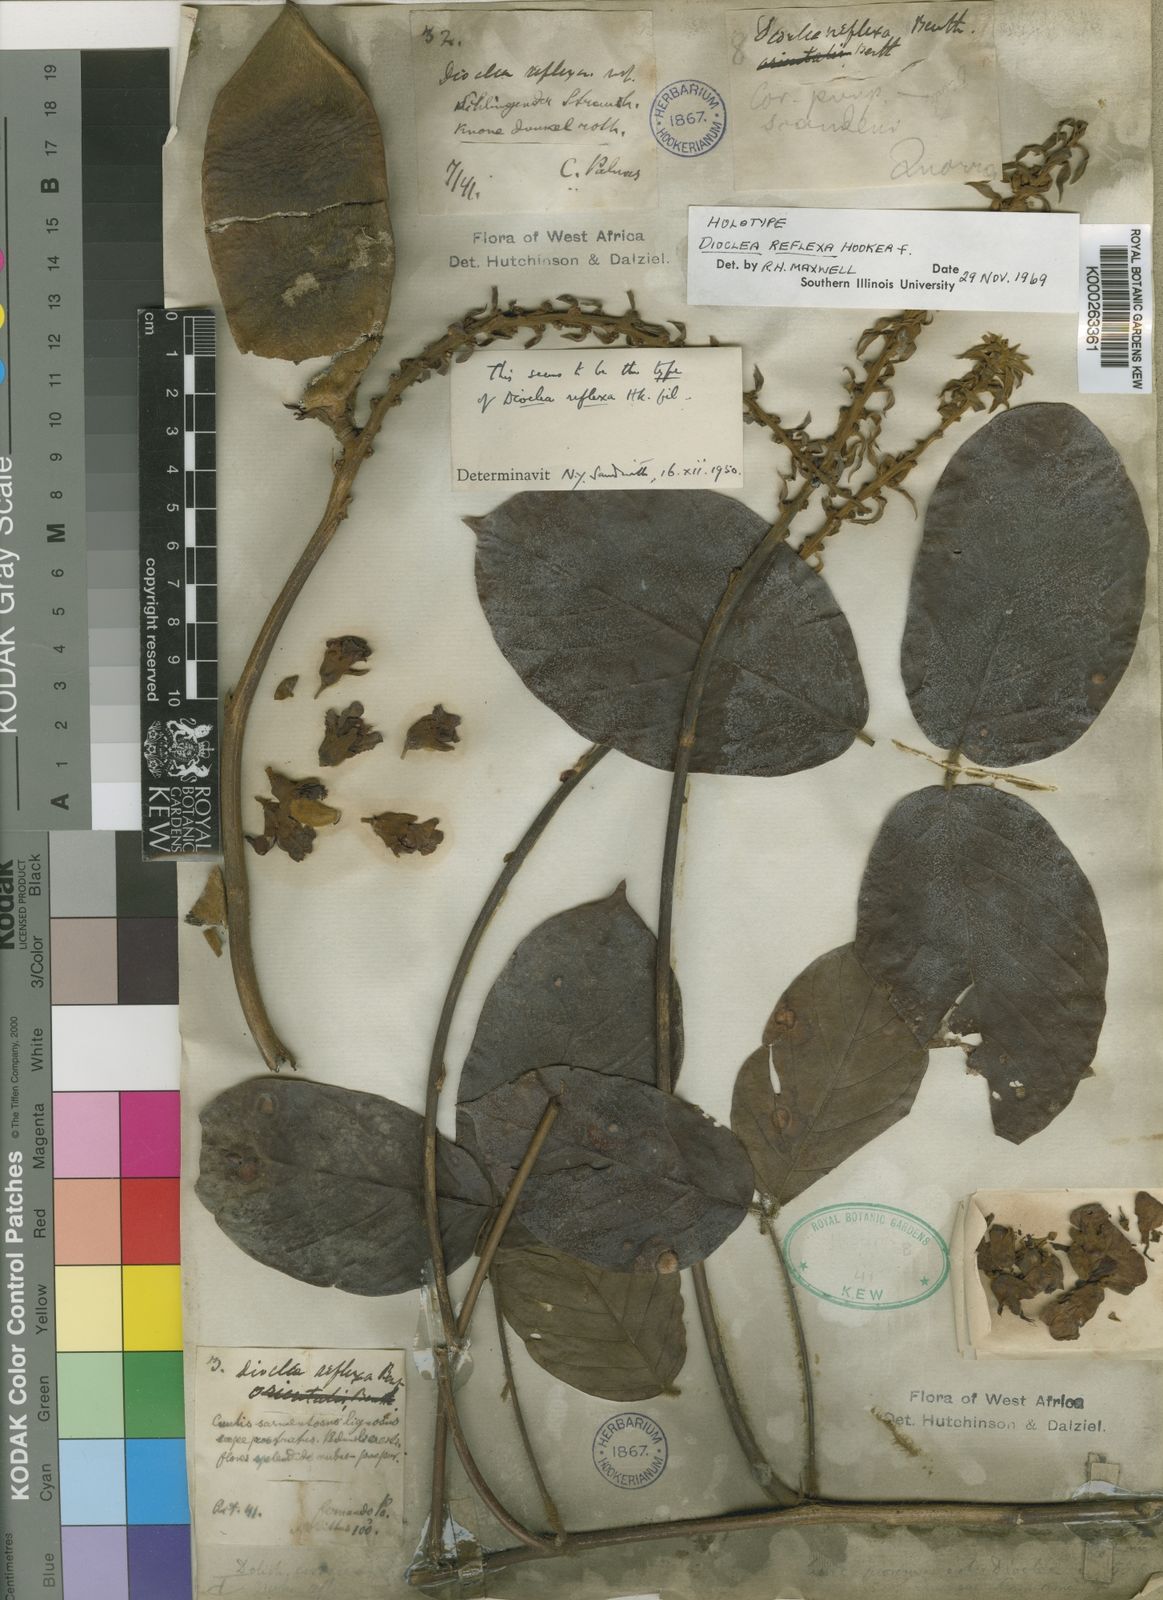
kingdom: Plantae
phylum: Tracheophyta
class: Magnoliopsida
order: Fabales
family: Fabaceae
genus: Macropsychanthus
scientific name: Macropsychanthus comosus
